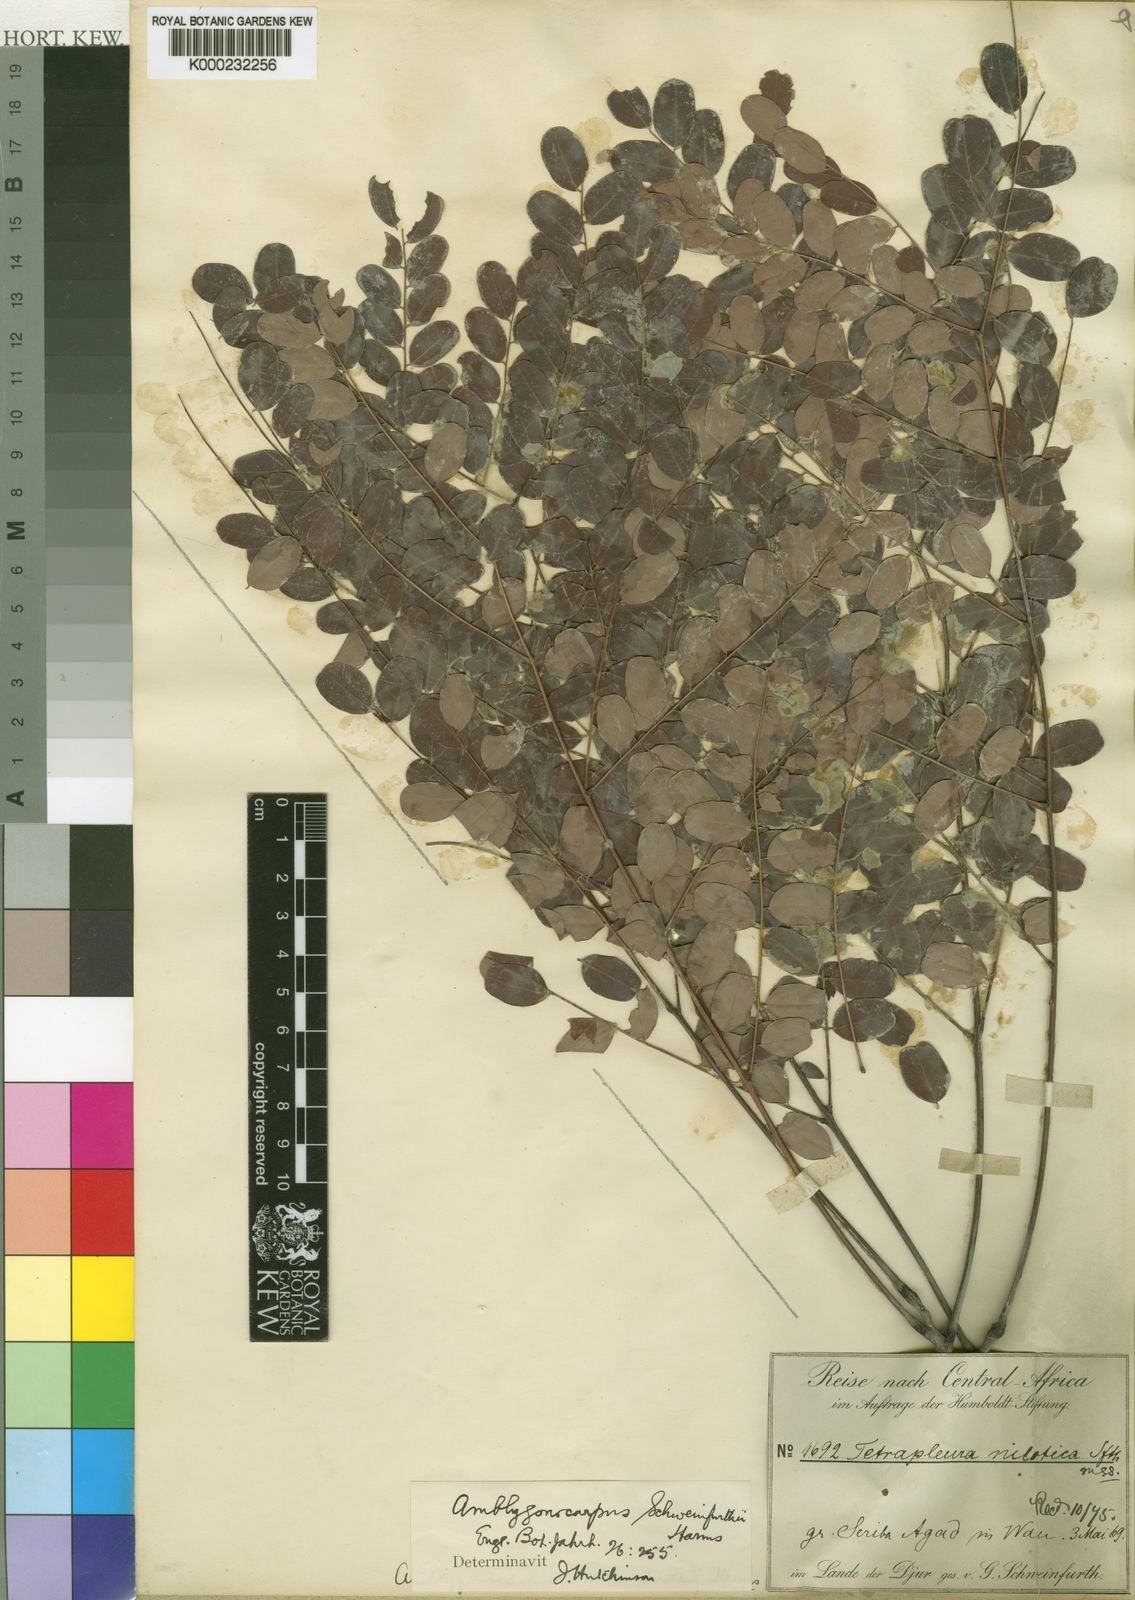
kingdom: Plantae
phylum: Tracheophyta
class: Magnoliopsida
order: Fabales
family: Fabaceae
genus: Amblygonocarpus
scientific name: Amblygonocarpus andongensis
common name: Bangawanga
